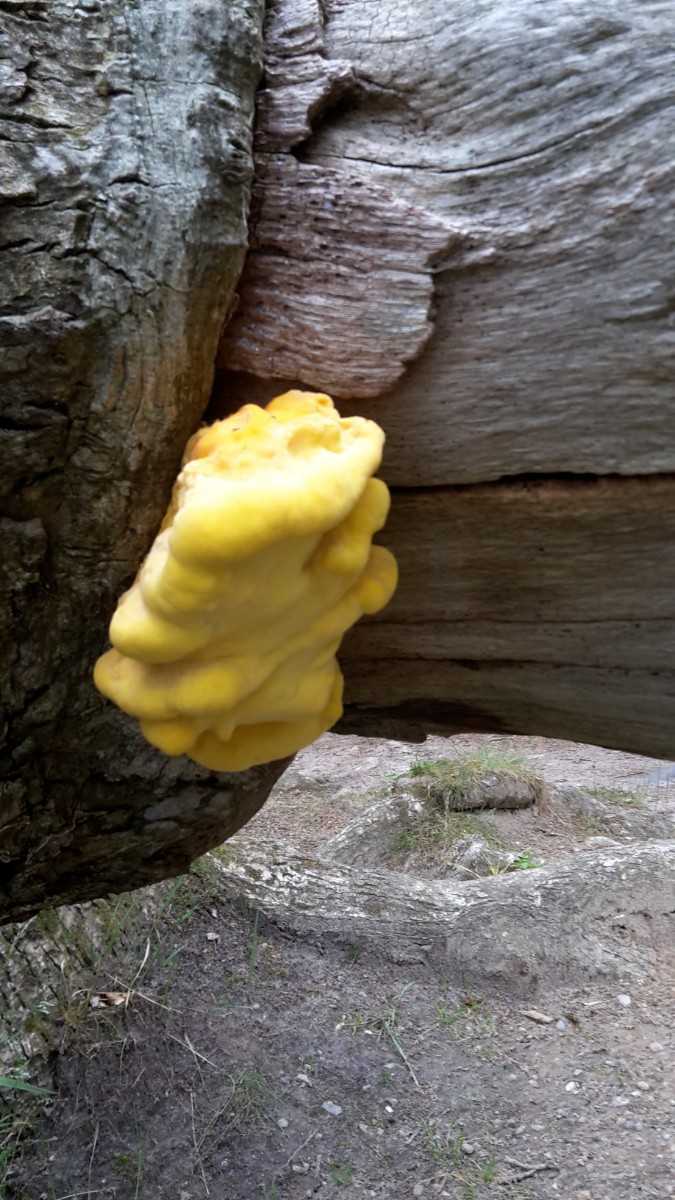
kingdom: Fungi
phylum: Basidiomycota
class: Agaricomycetes
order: Polyporales
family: Laetiporaceae
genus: Laetiporus
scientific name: Laetiporus sulphureus
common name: svovlporesvamp
